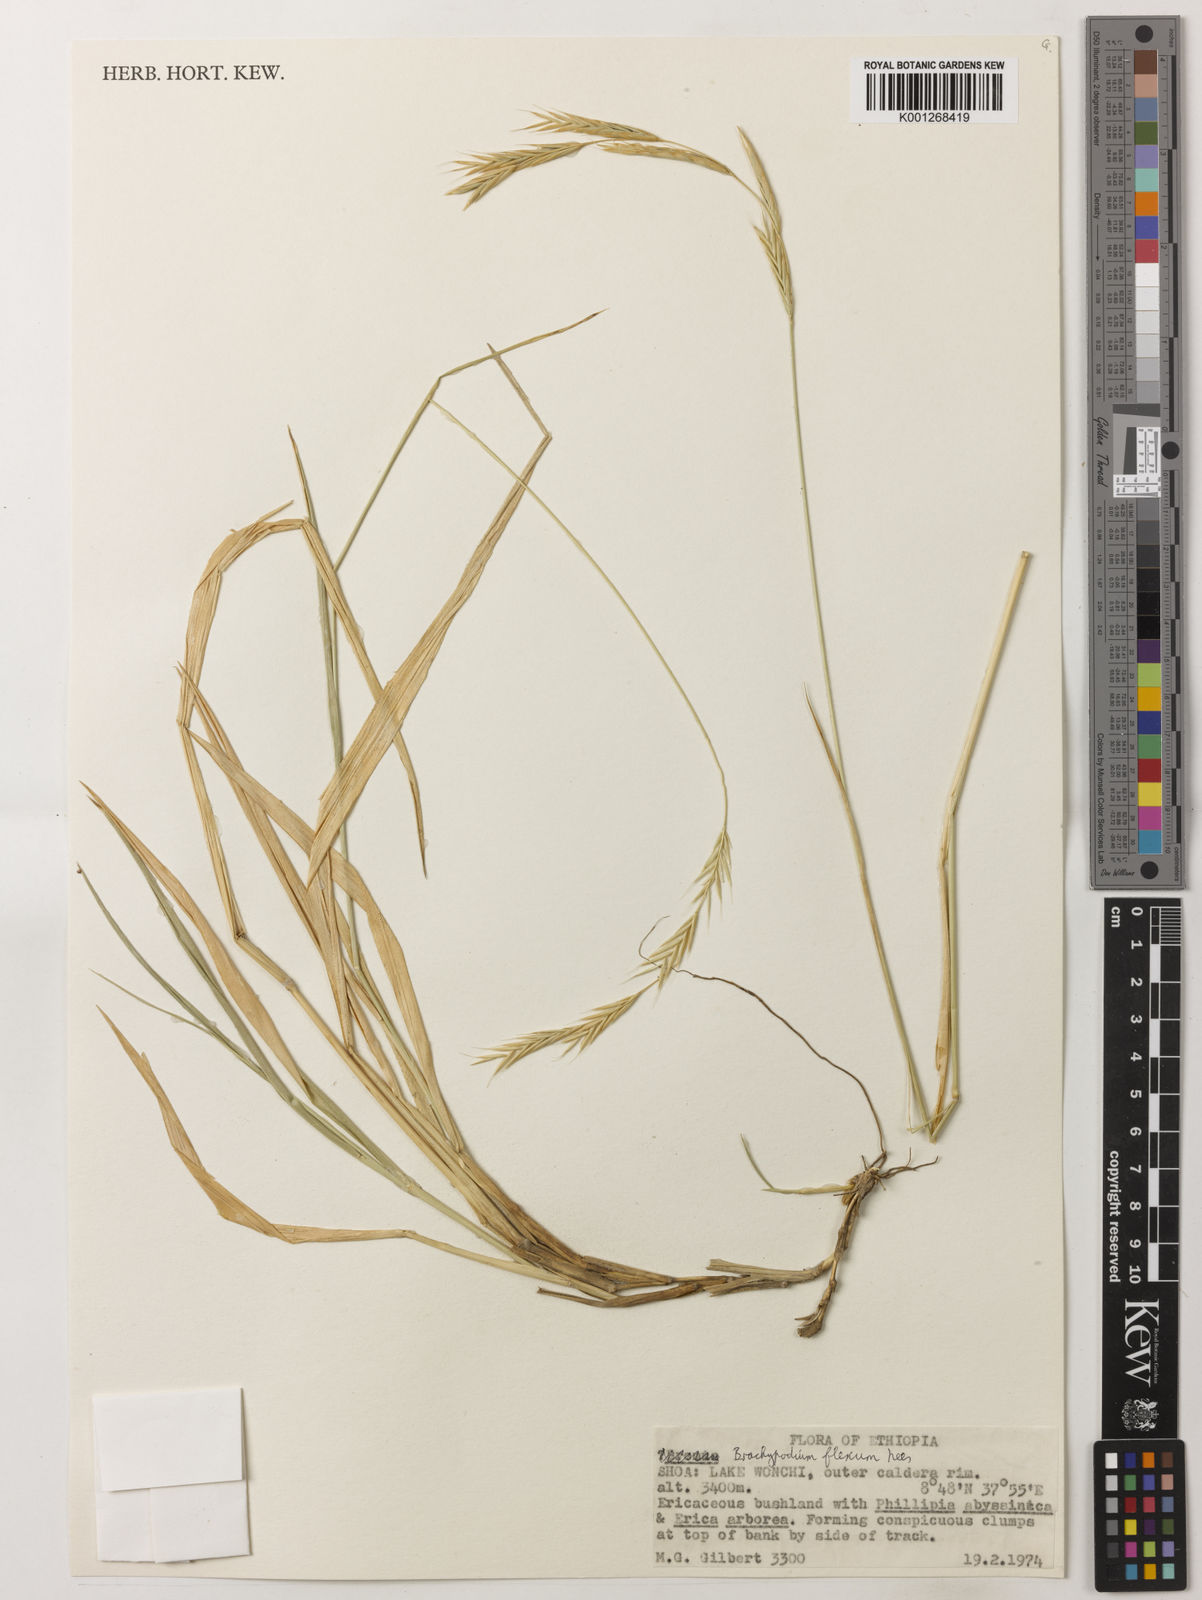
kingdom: Plantae
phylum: Tracheophyta
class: Liliopsida
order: Poales
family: Poaceae
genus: Brachypodium
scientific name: Brachypodium flexum
